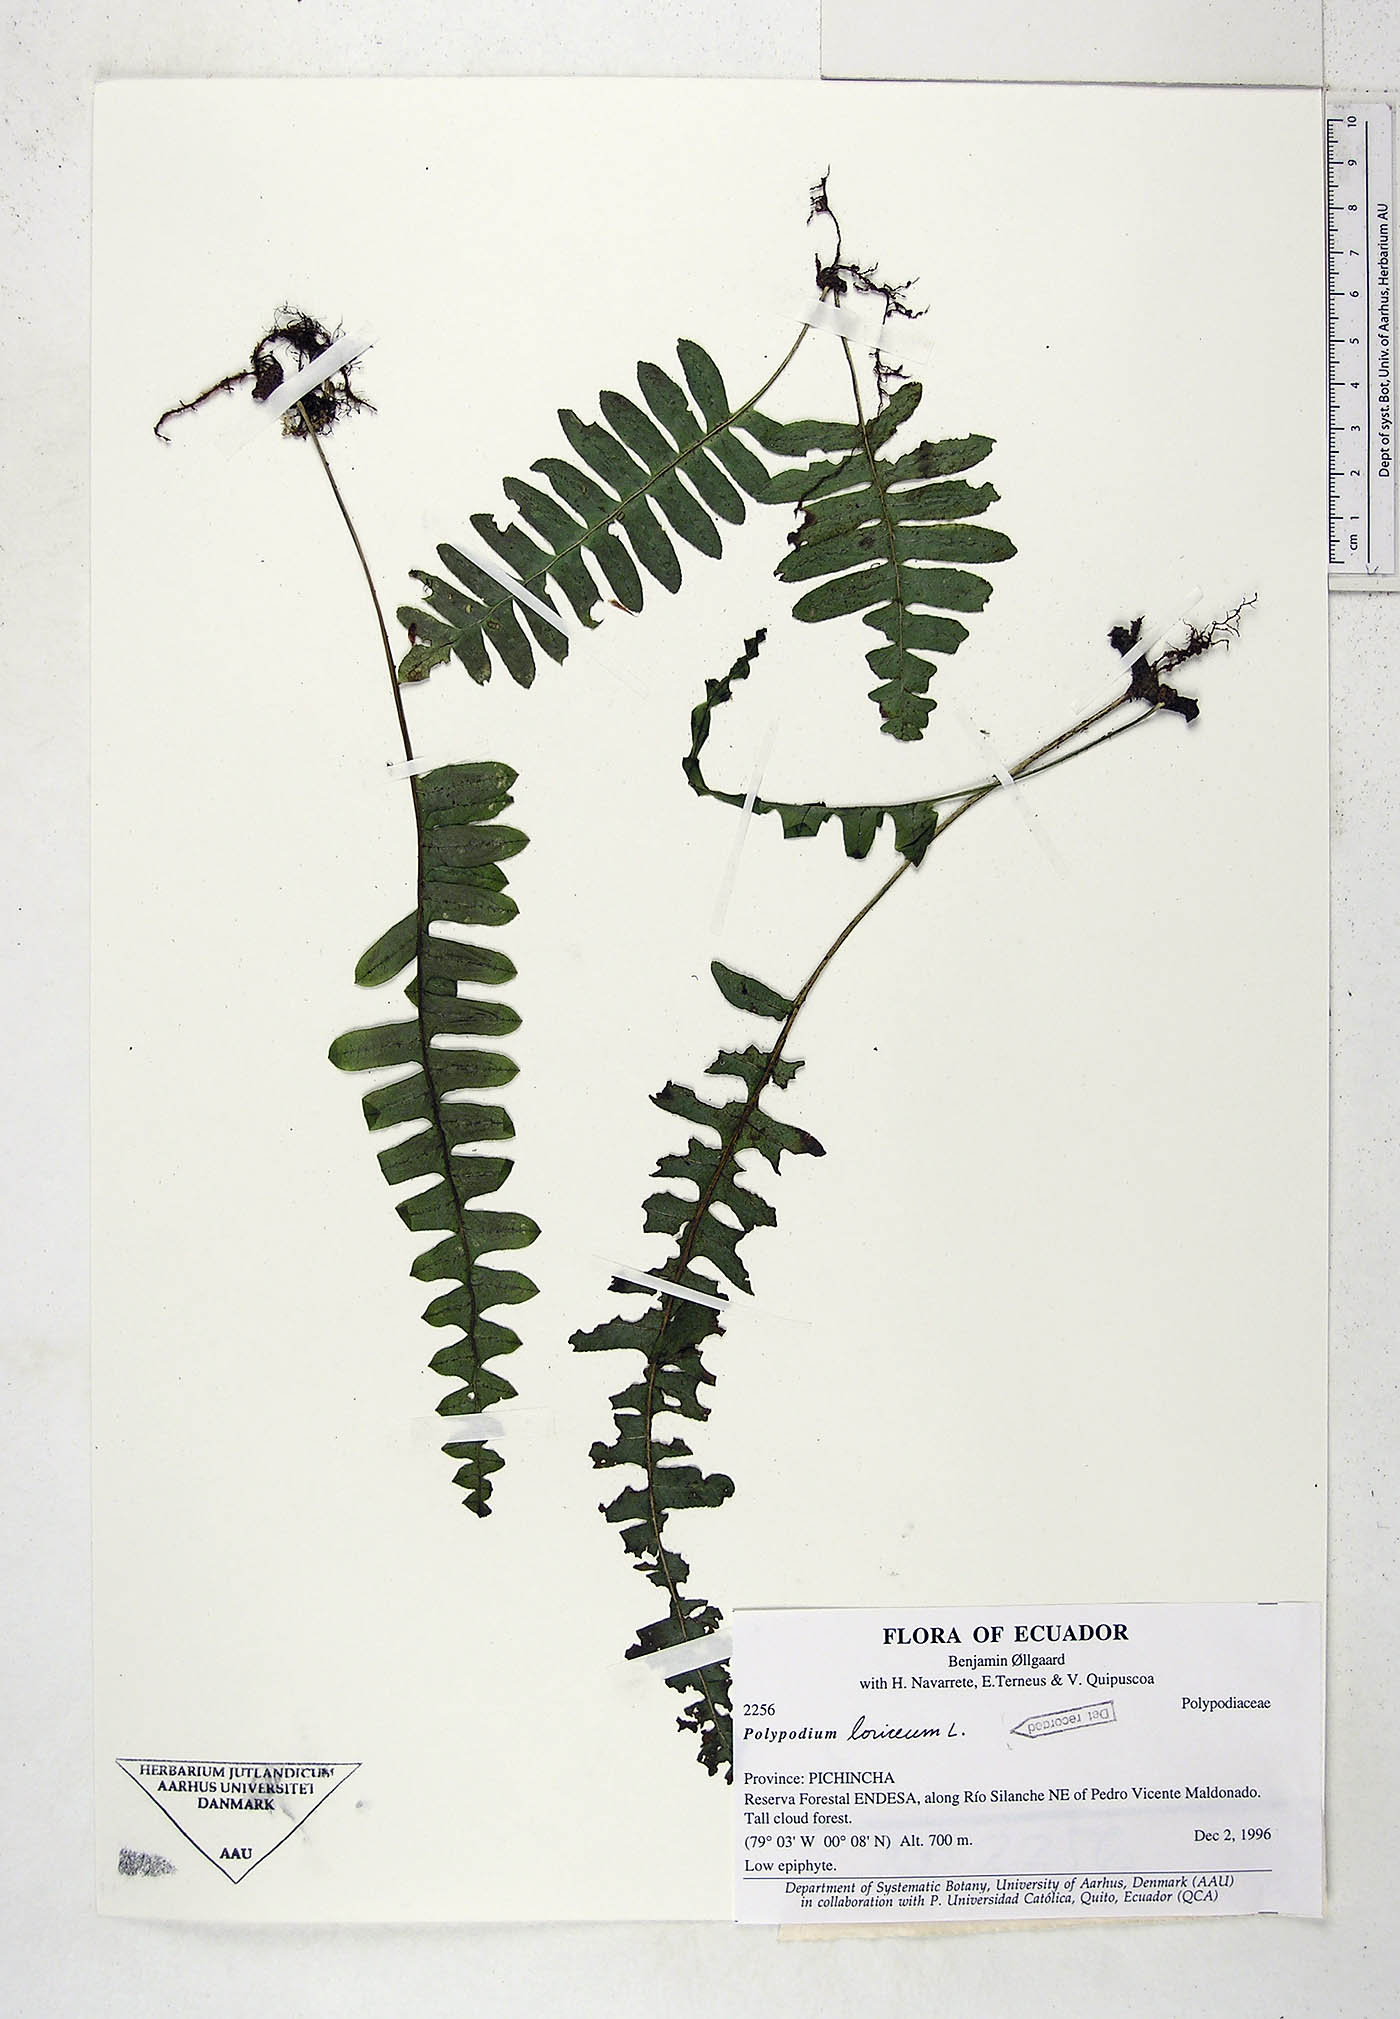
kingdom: Plantae
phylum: Tracheophyta
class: Polypodiopsida
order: Polypodiales
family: Polypodiaceae
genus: Serpocaulon
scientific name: Serpocaulon loriceum
